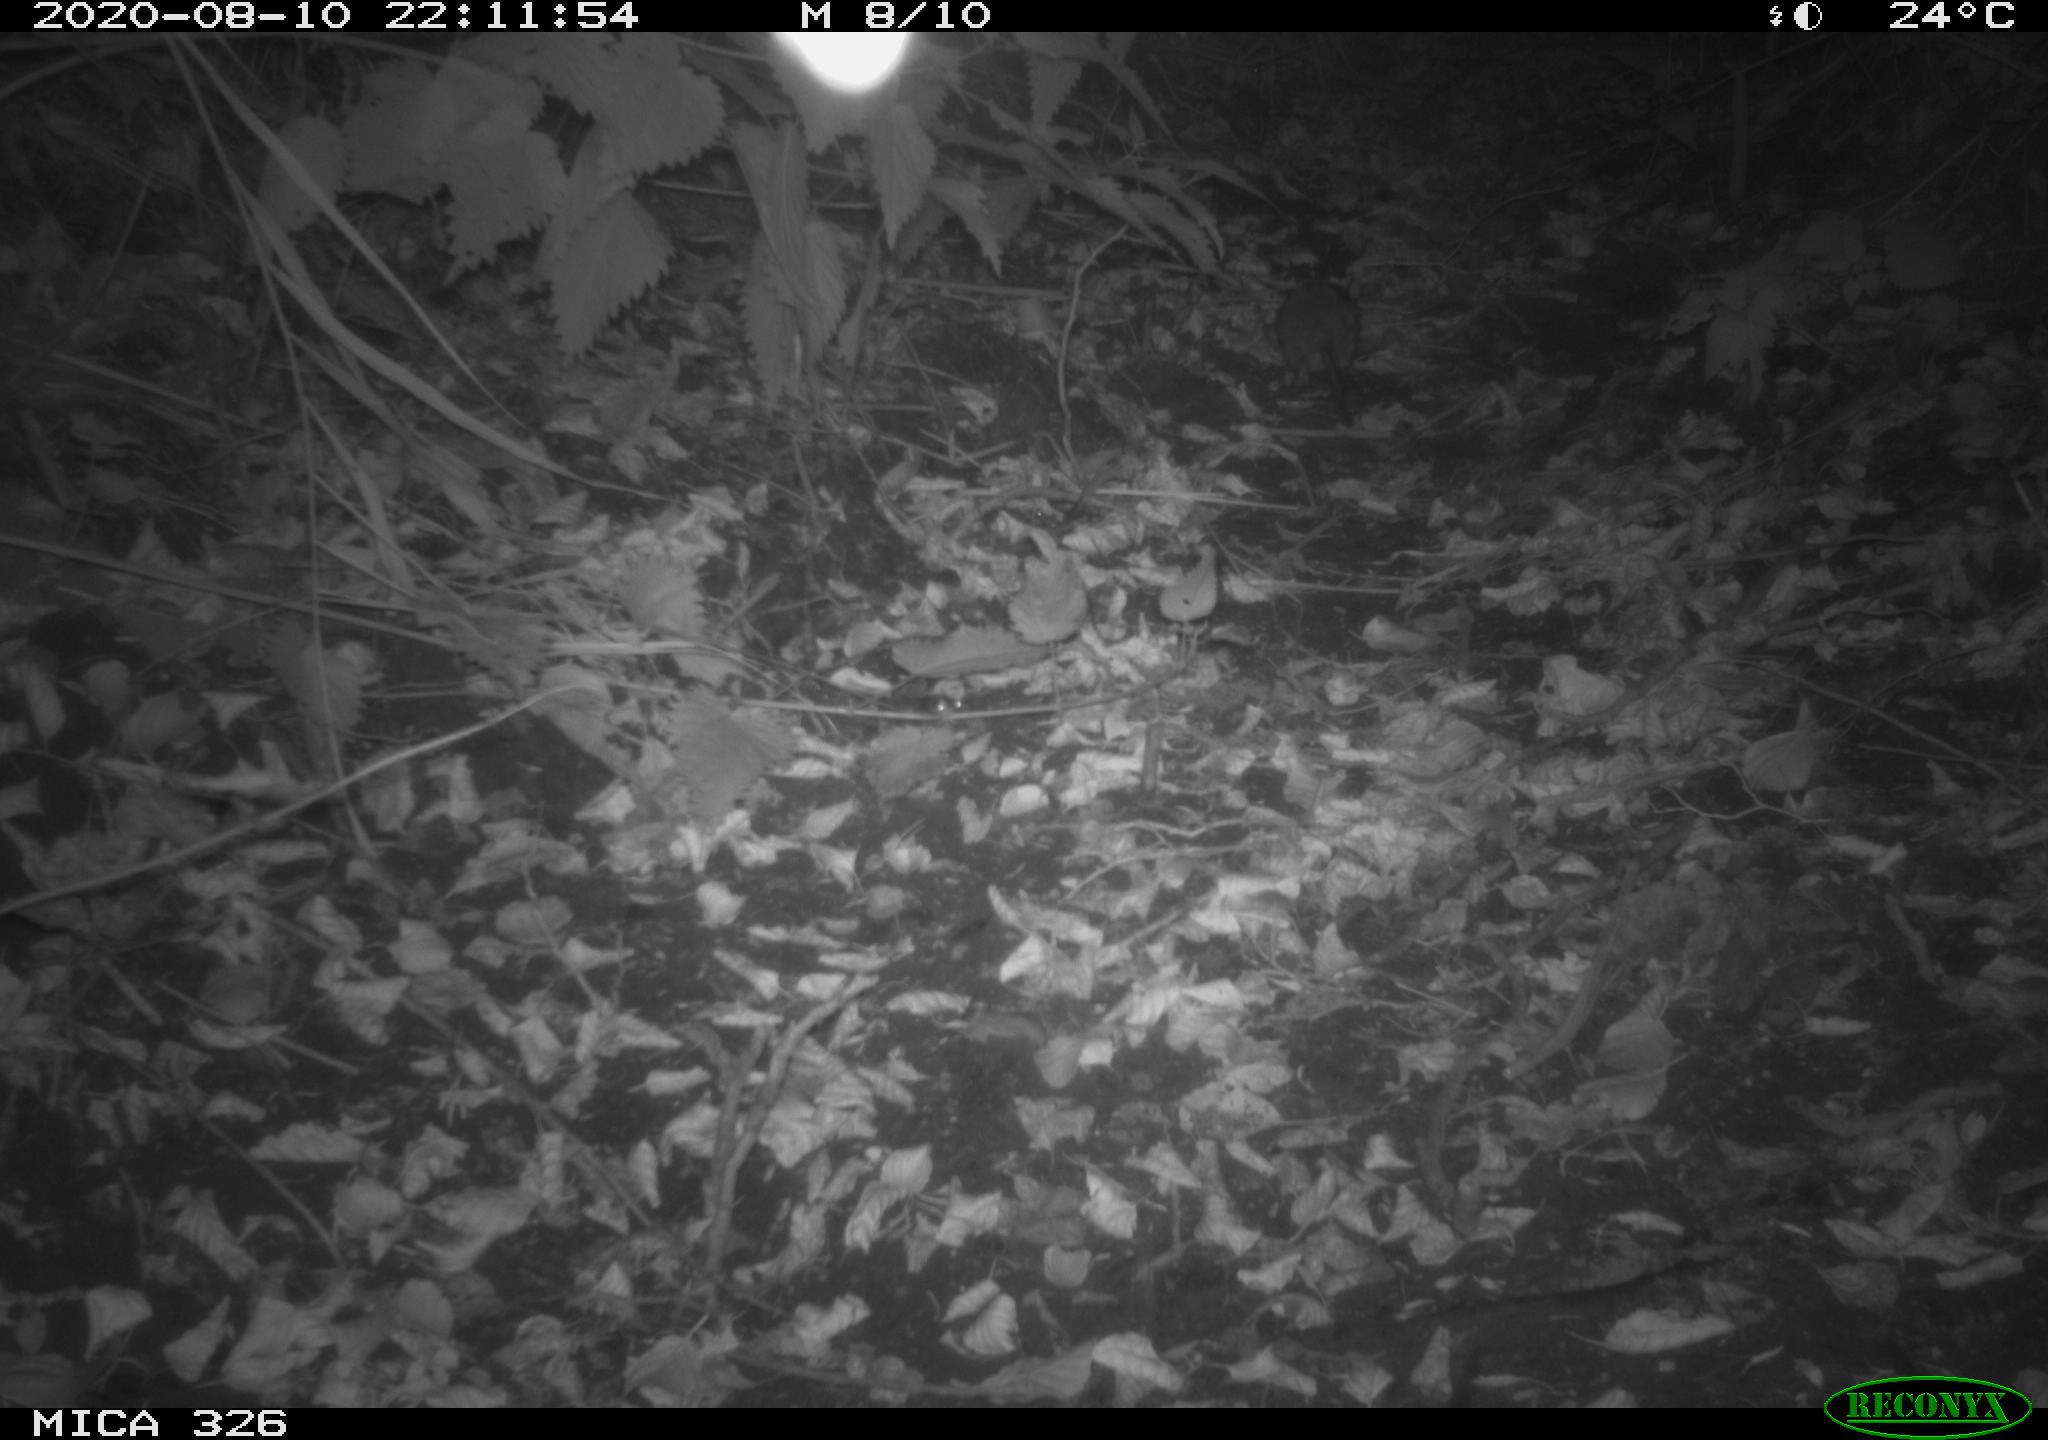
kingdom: Animalia
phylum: Chordata
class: Mammalia
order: Rodentia
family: Muridae
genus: Rattus
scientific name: Rattus norvegicus
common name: Brown rat
